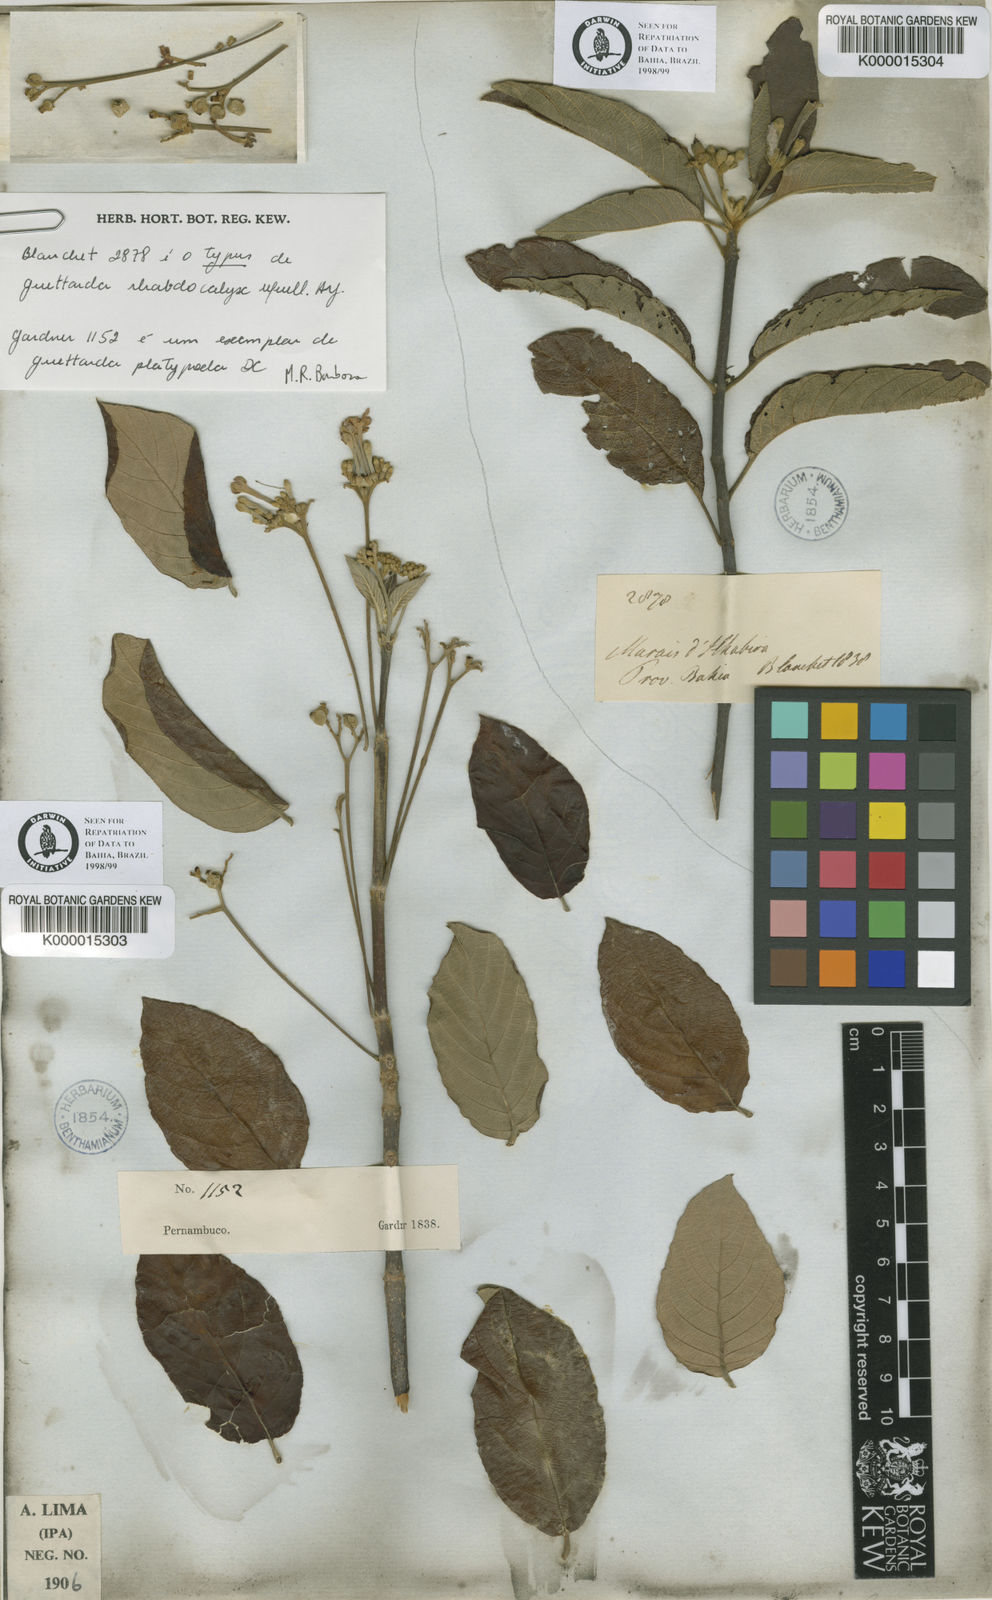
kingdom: Plantae
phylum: Tracheophyta
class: Magnoliopsida
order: Gentianales
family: Rubiaceae
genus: Guettarda
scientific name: Guettarda
